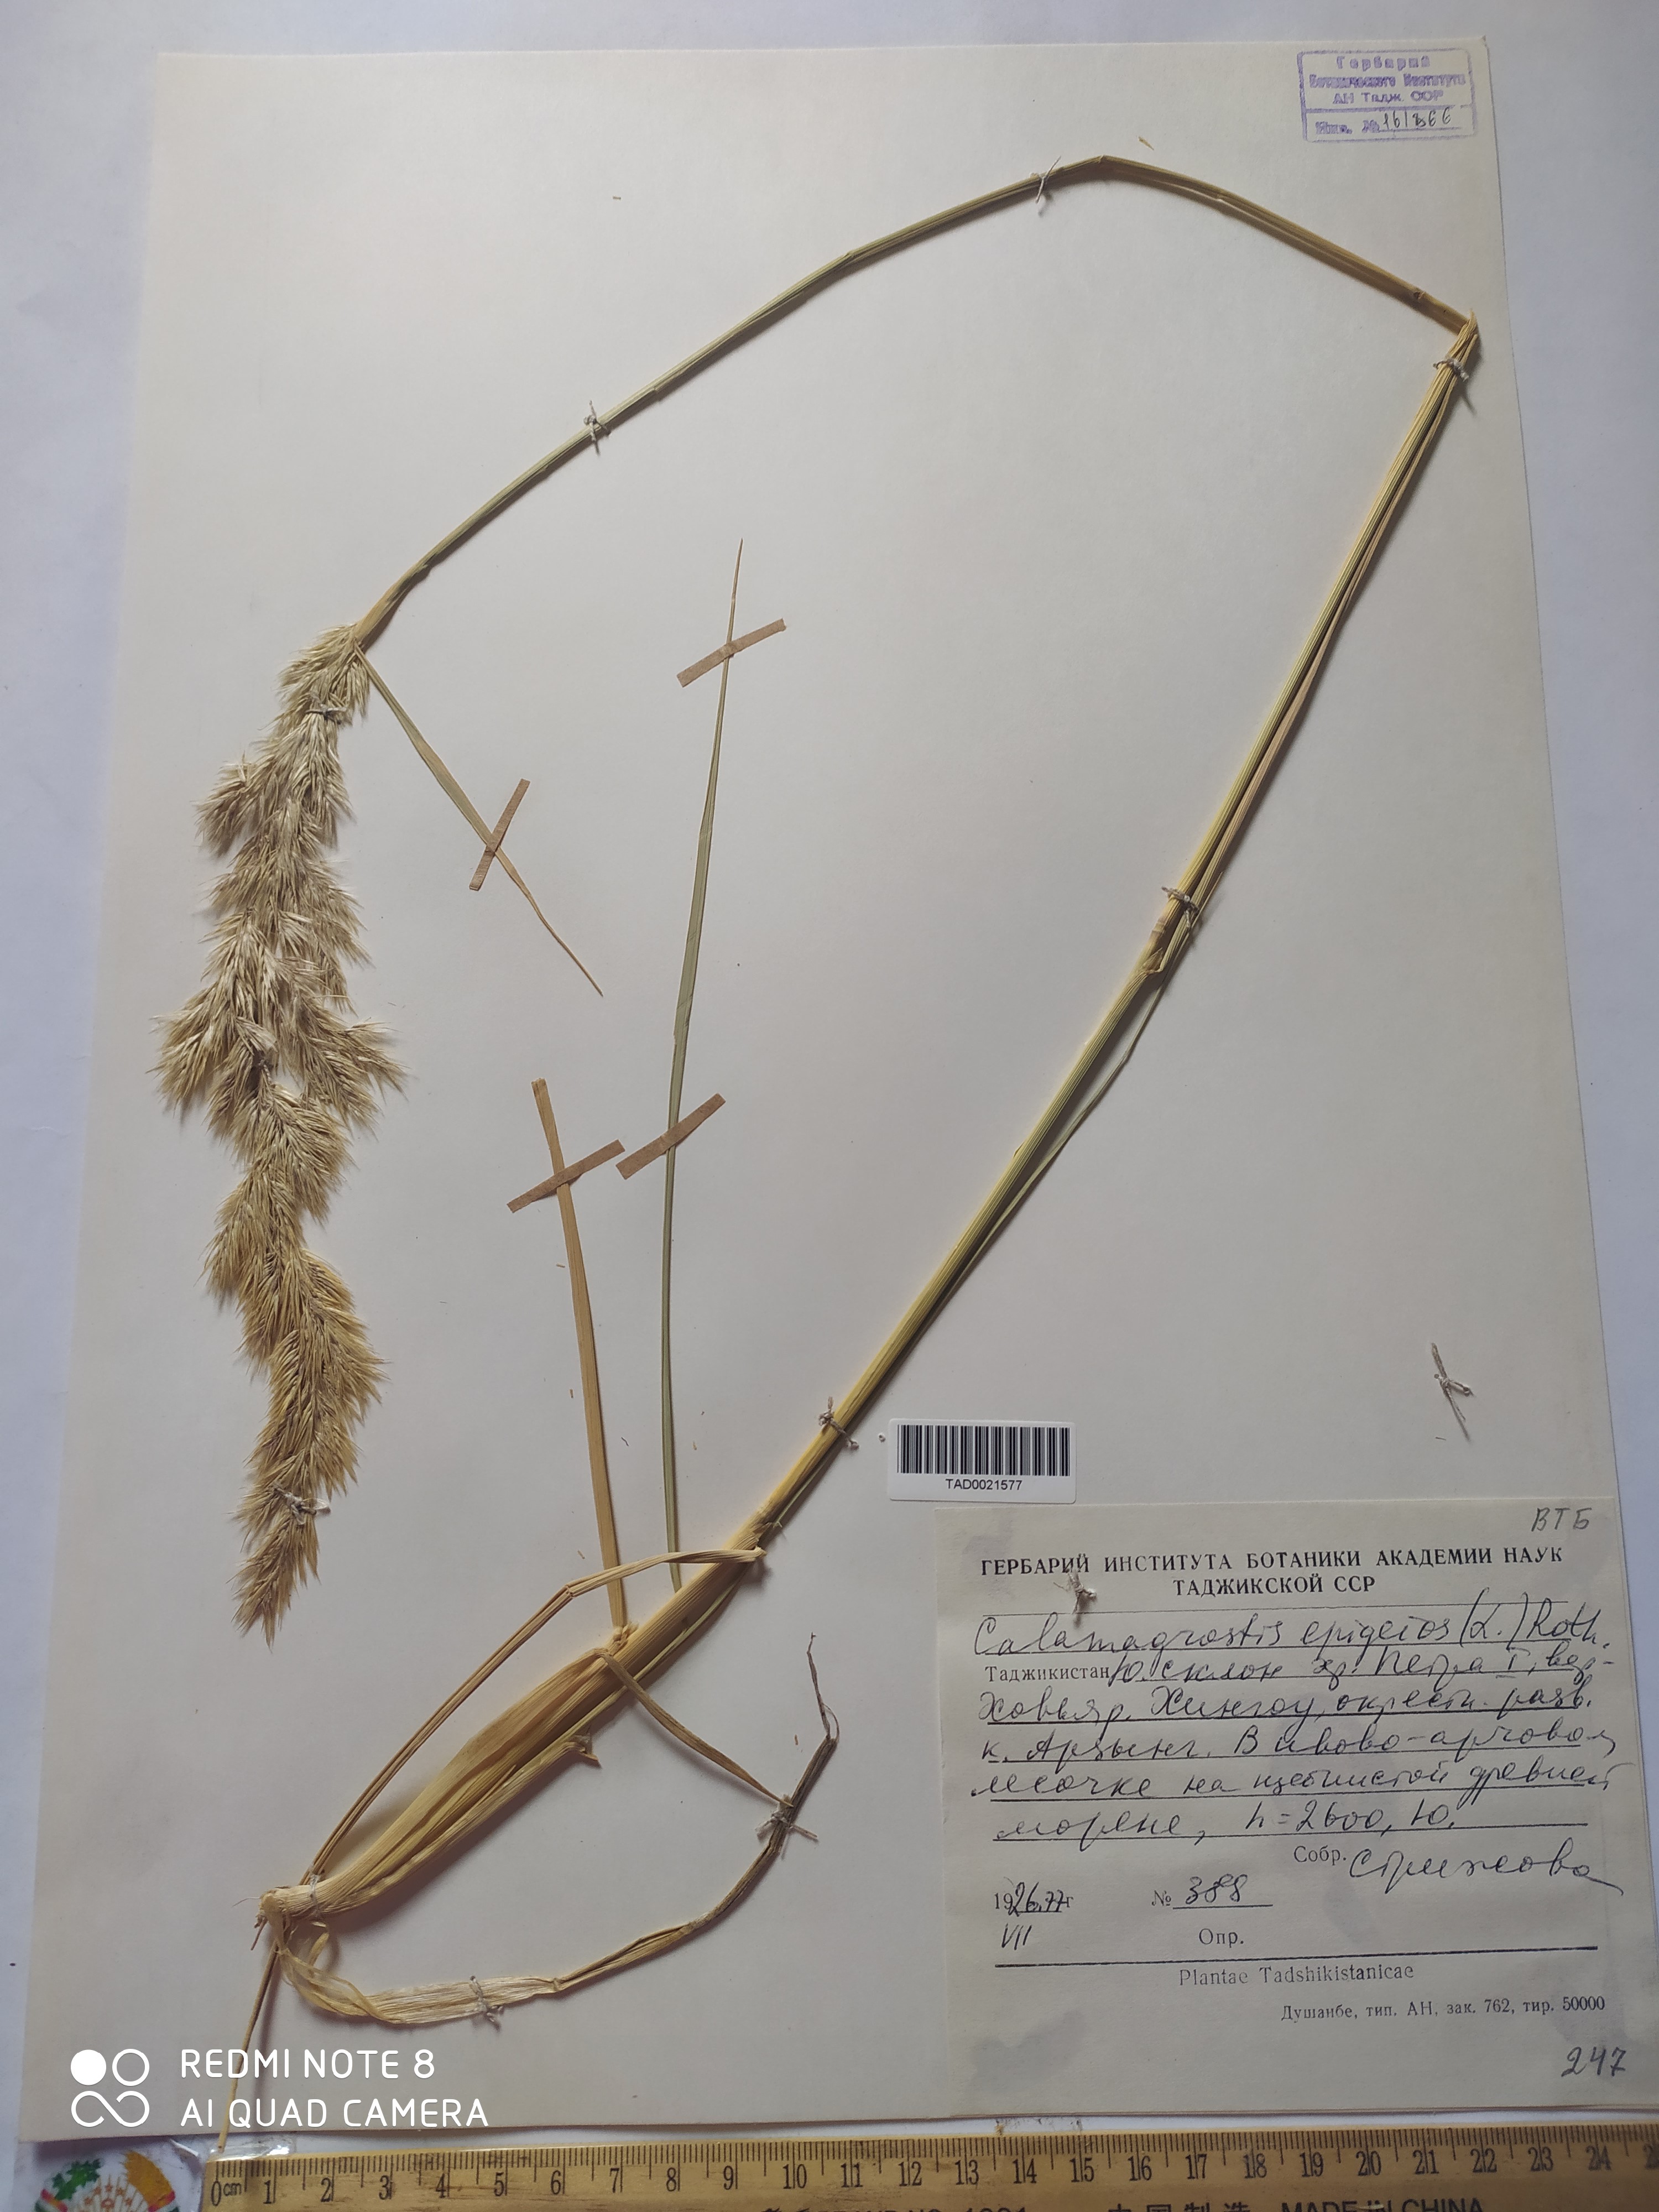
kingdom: Plantae
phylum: Tracheophyta
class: Liliopsida
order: Poales
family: Poaceae
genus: Calamagrostis
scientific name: Calamagrostis epigejos
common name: Wood small-reed
